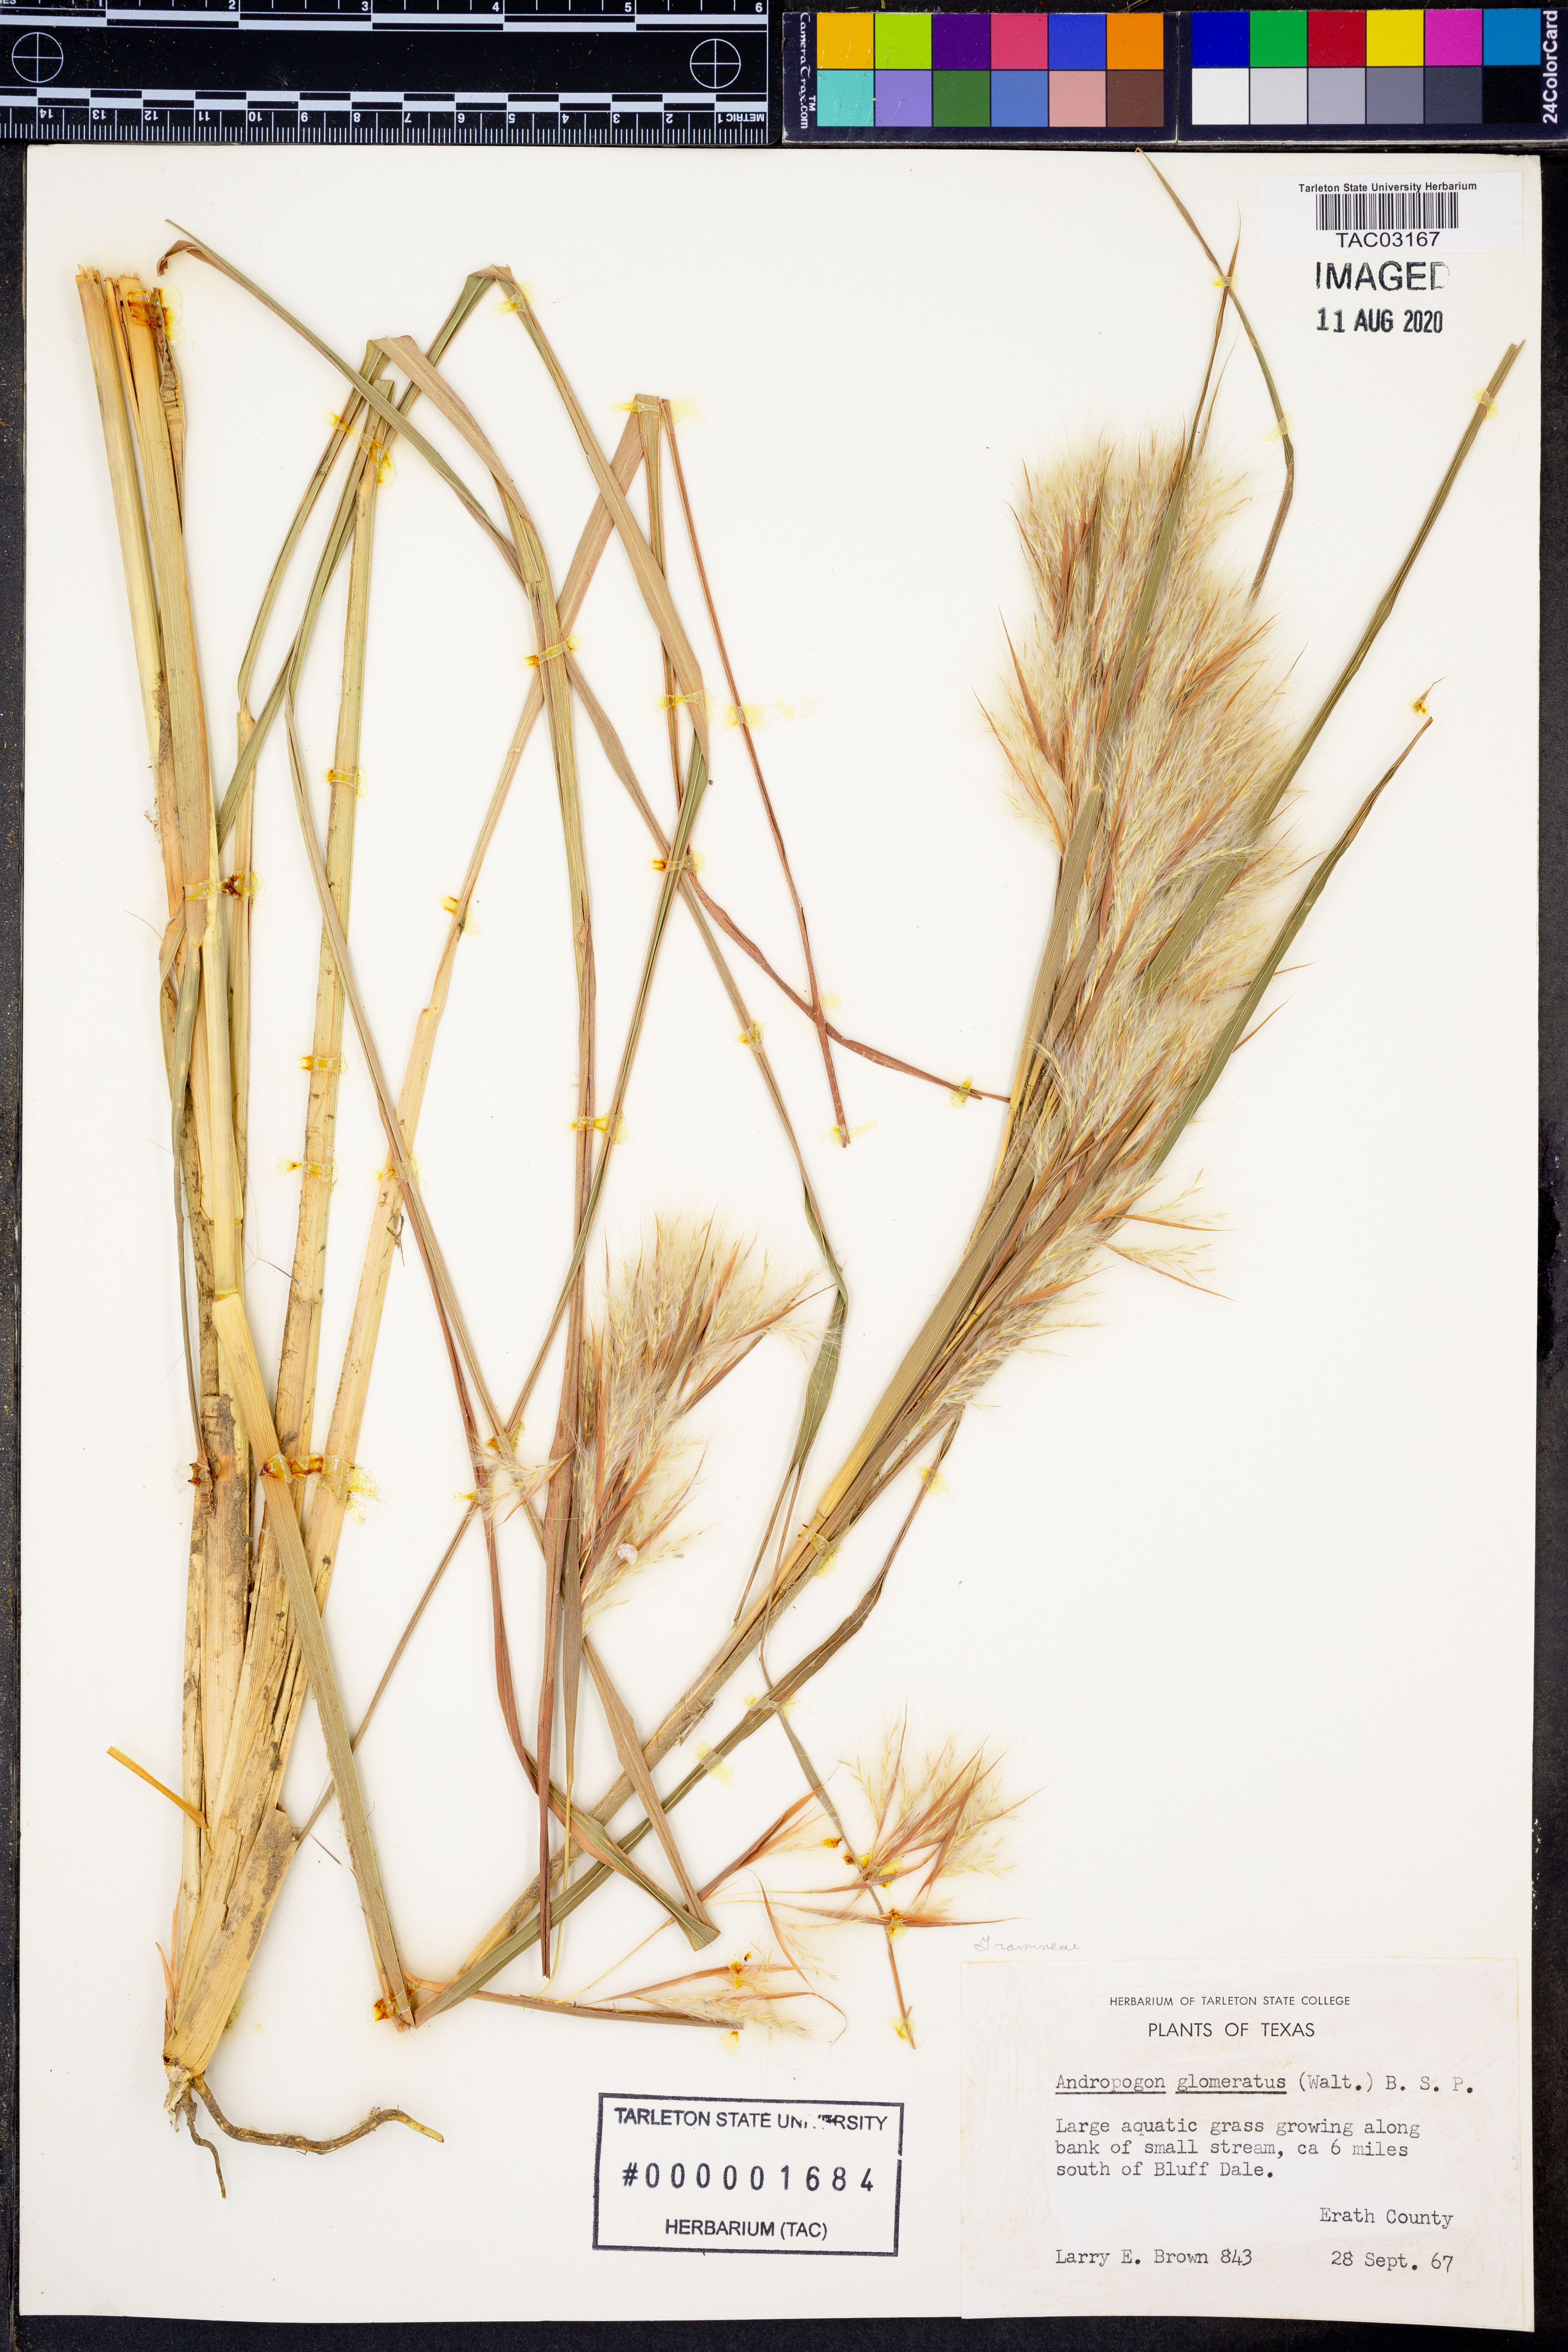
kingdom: Plantae
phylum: Tracheophyta
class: Liliopsida
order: Poales
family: Poaceae
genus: Andropogon
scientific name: Andropogon glomeratus
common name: Bushy beard grass
